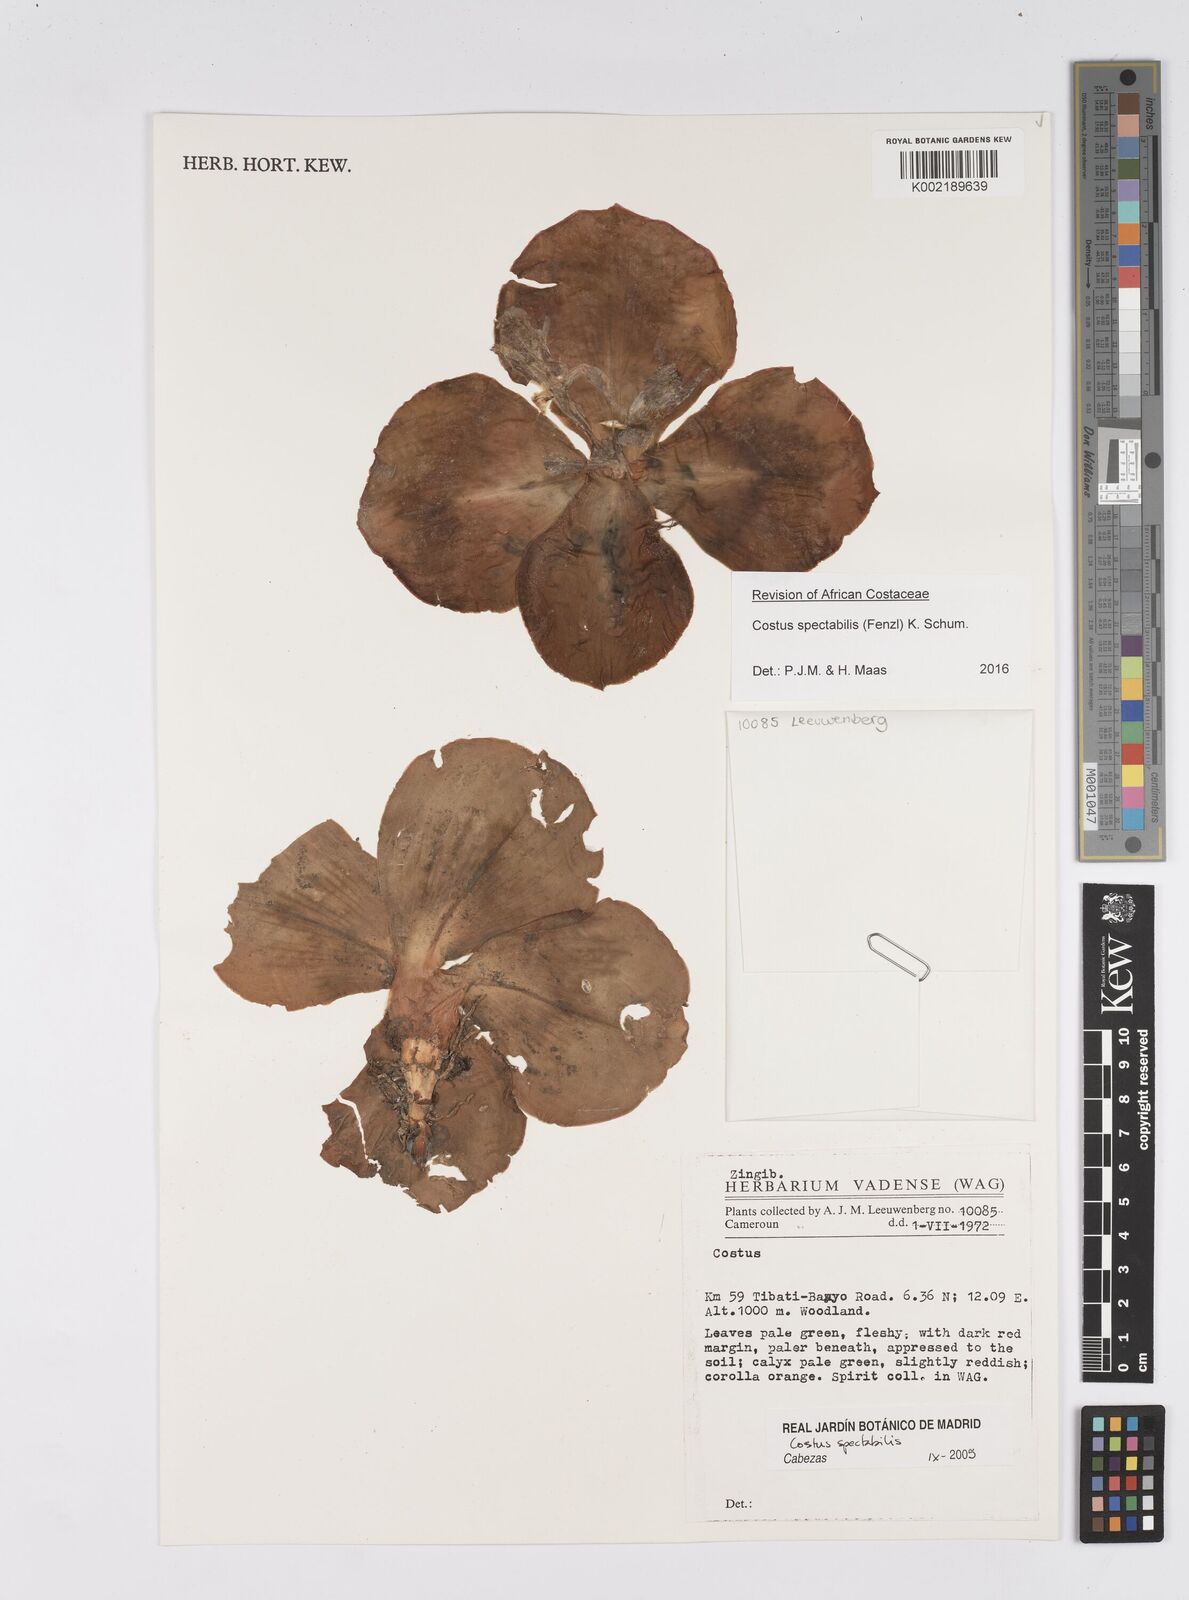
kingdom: Plantae
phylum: Tracheophyta
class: Liliopsida
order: Zingiberales
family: Costaceae
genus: Costus
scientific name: Costus spectabilis
